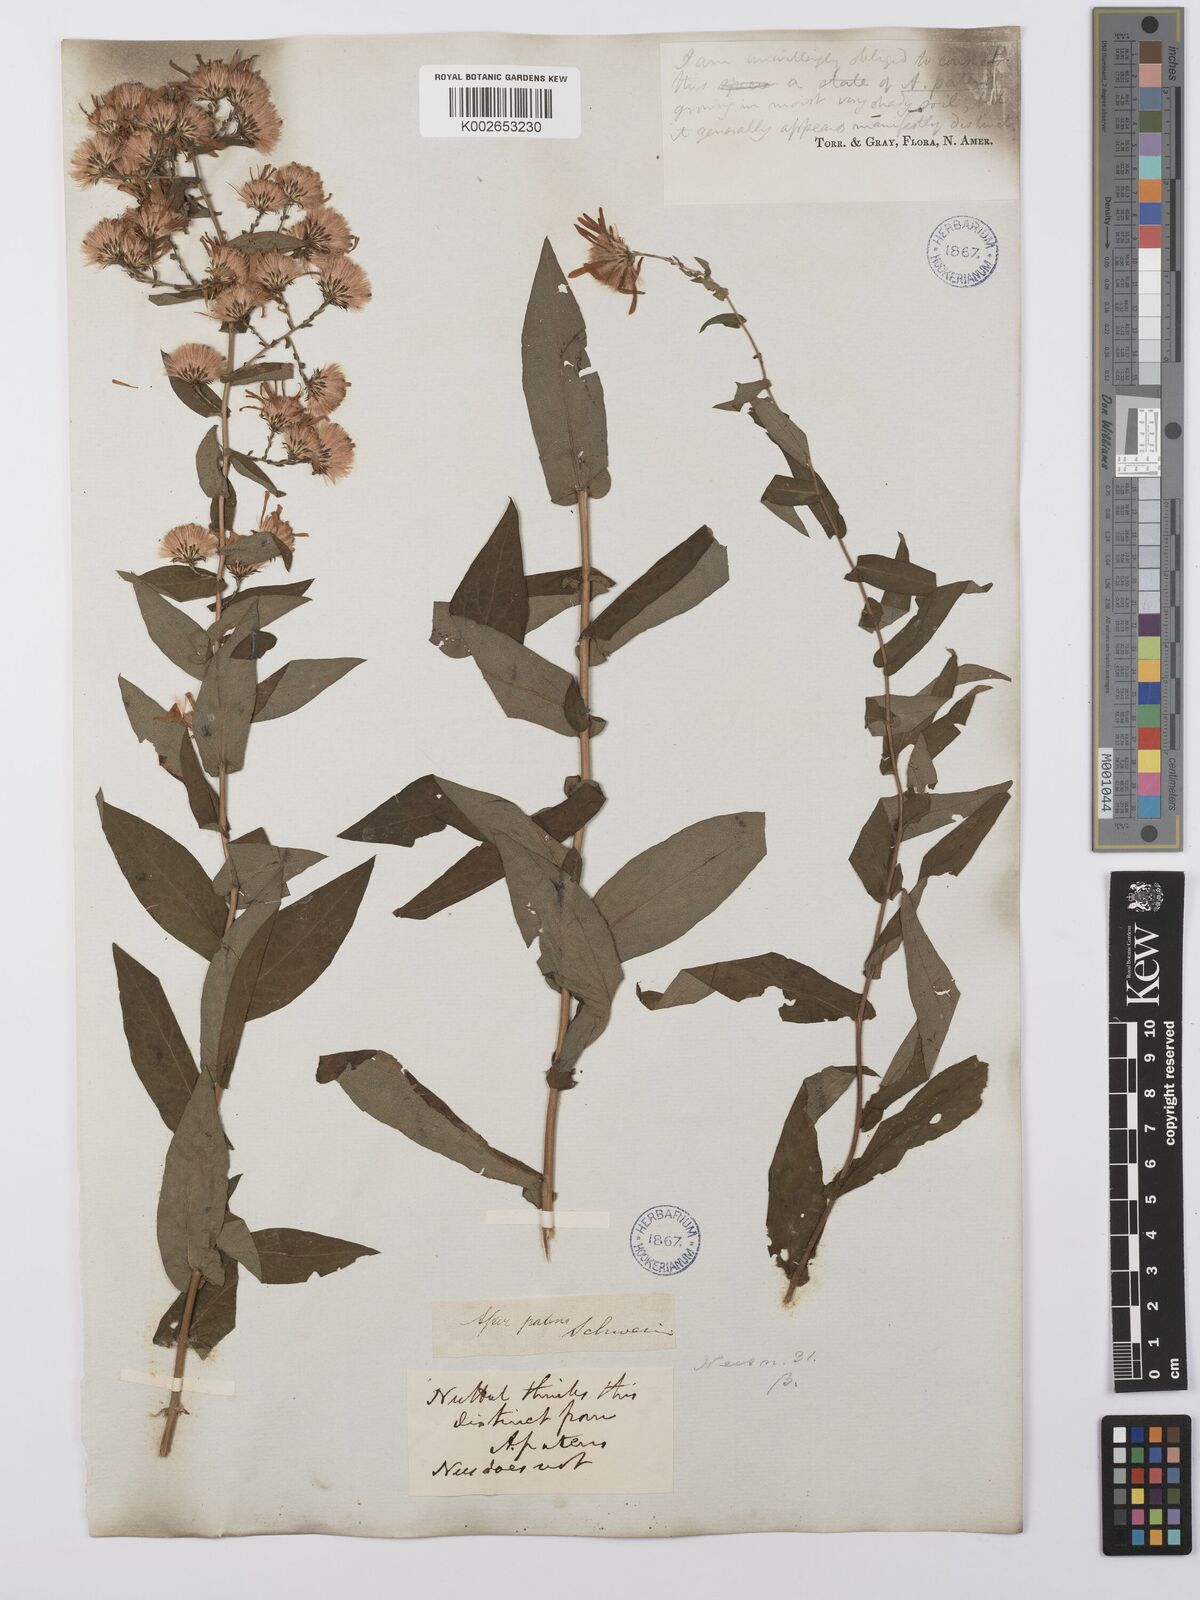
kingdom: Plantae
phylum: Tracheophyta
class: Magnoliopsida
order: Asterales
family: Asteraceae
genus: Symphyotrichum
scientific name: Symphyotrichum phlogifolium
